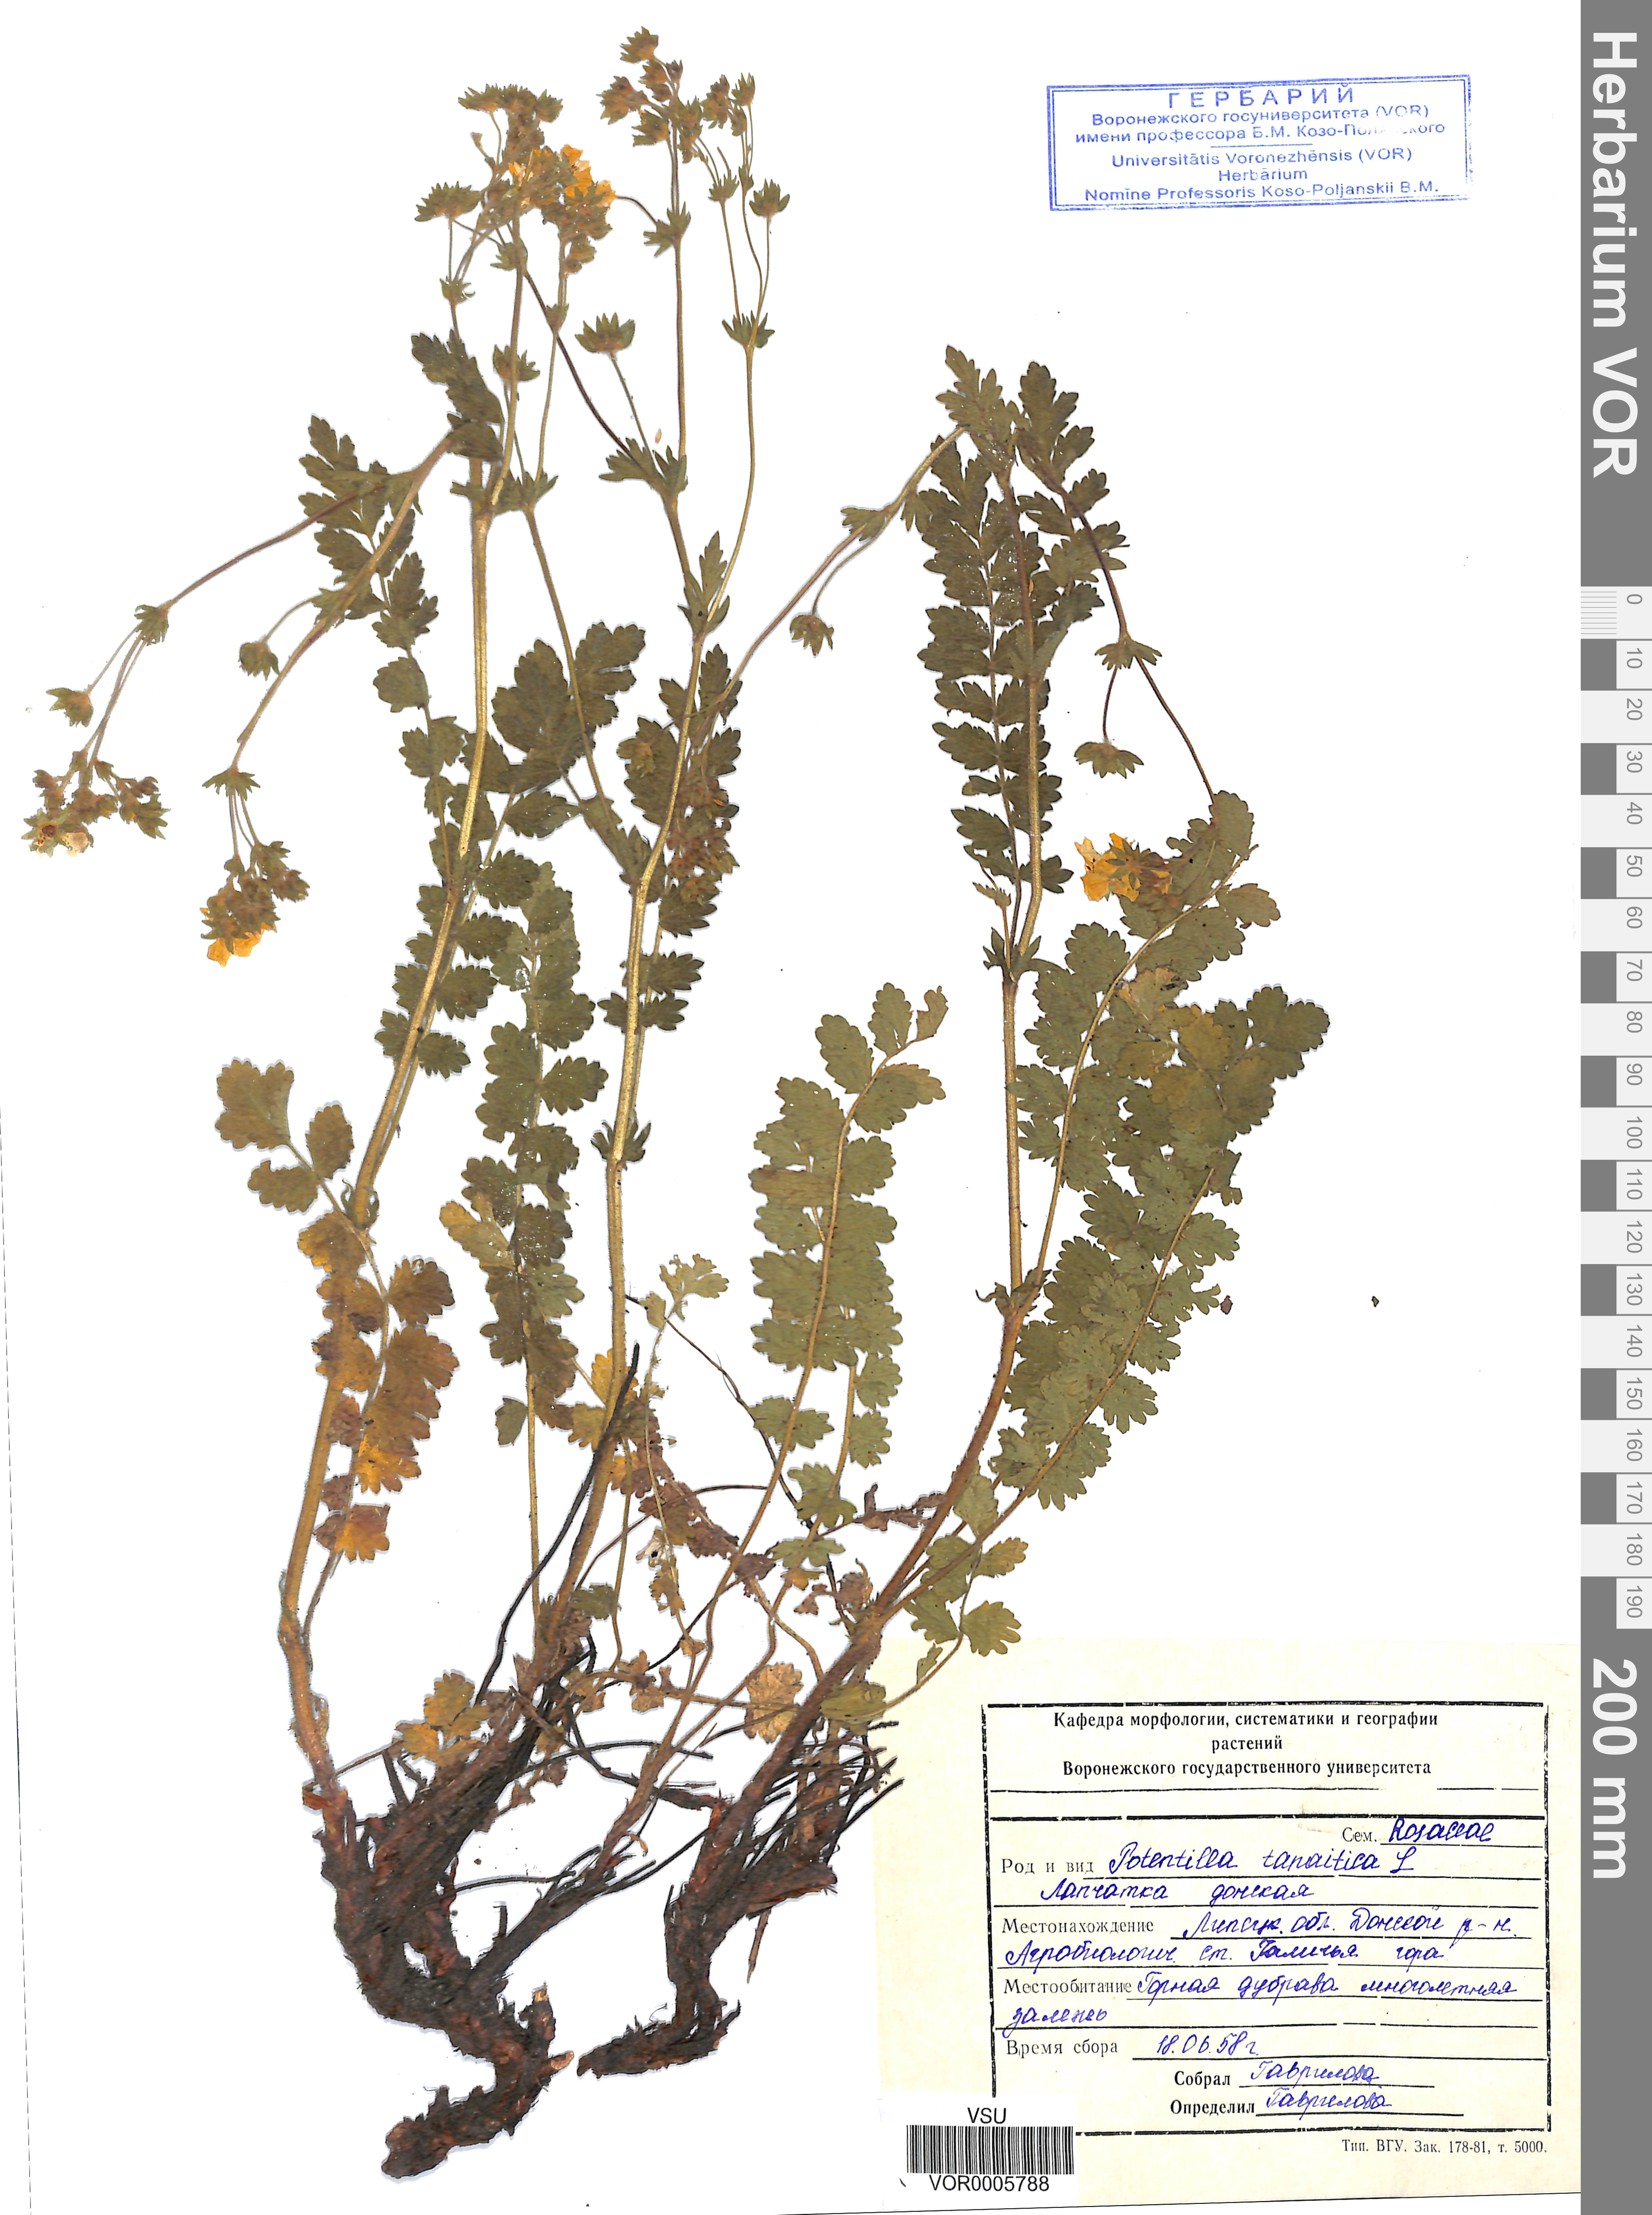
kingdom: Plantae
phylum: Tracheophyta
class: Magnoliopsida
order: Rosales
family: Rosaceae
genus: Potentilla
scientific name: Potentilla tanaitica
